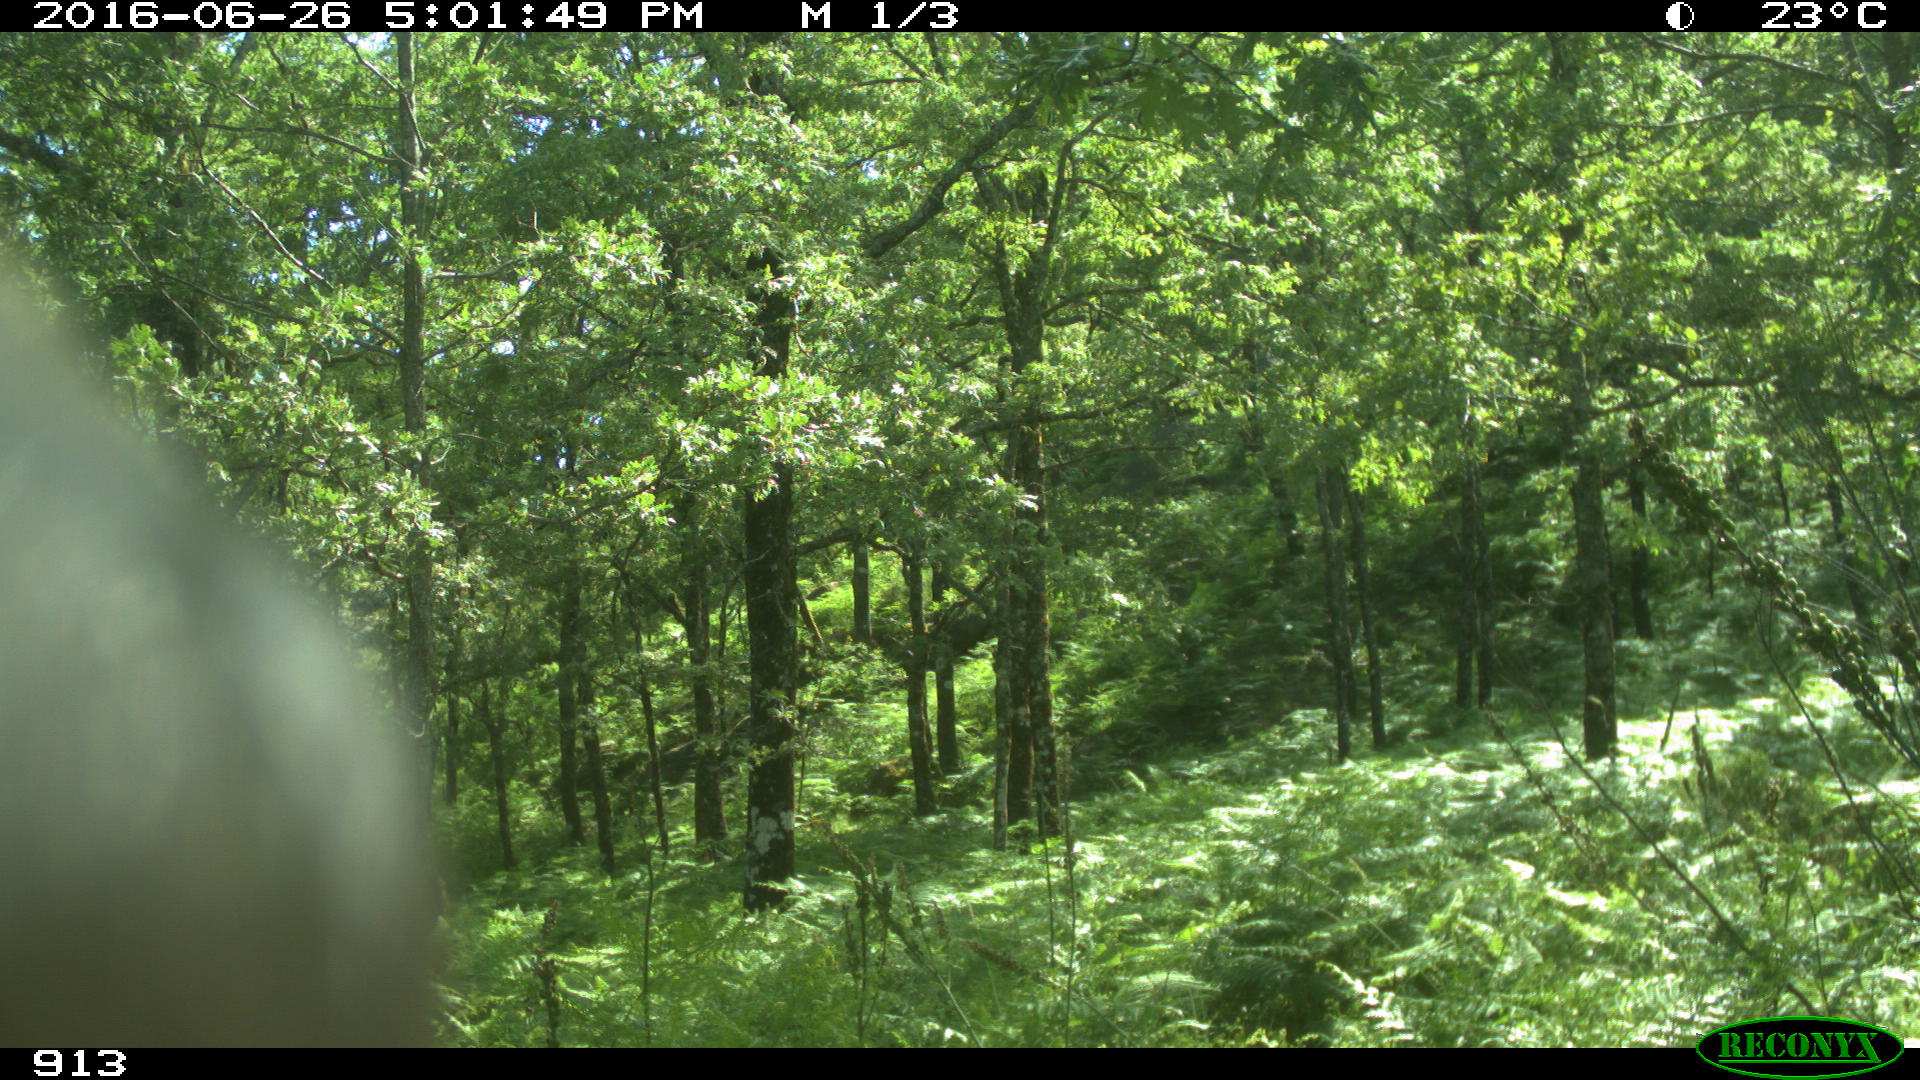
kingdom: Animalia
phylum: Chordata
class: Mammalia
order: Artiodactyla
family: Bovidae
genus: Bos
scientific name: Bos taurus
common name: Domesticated cattle
